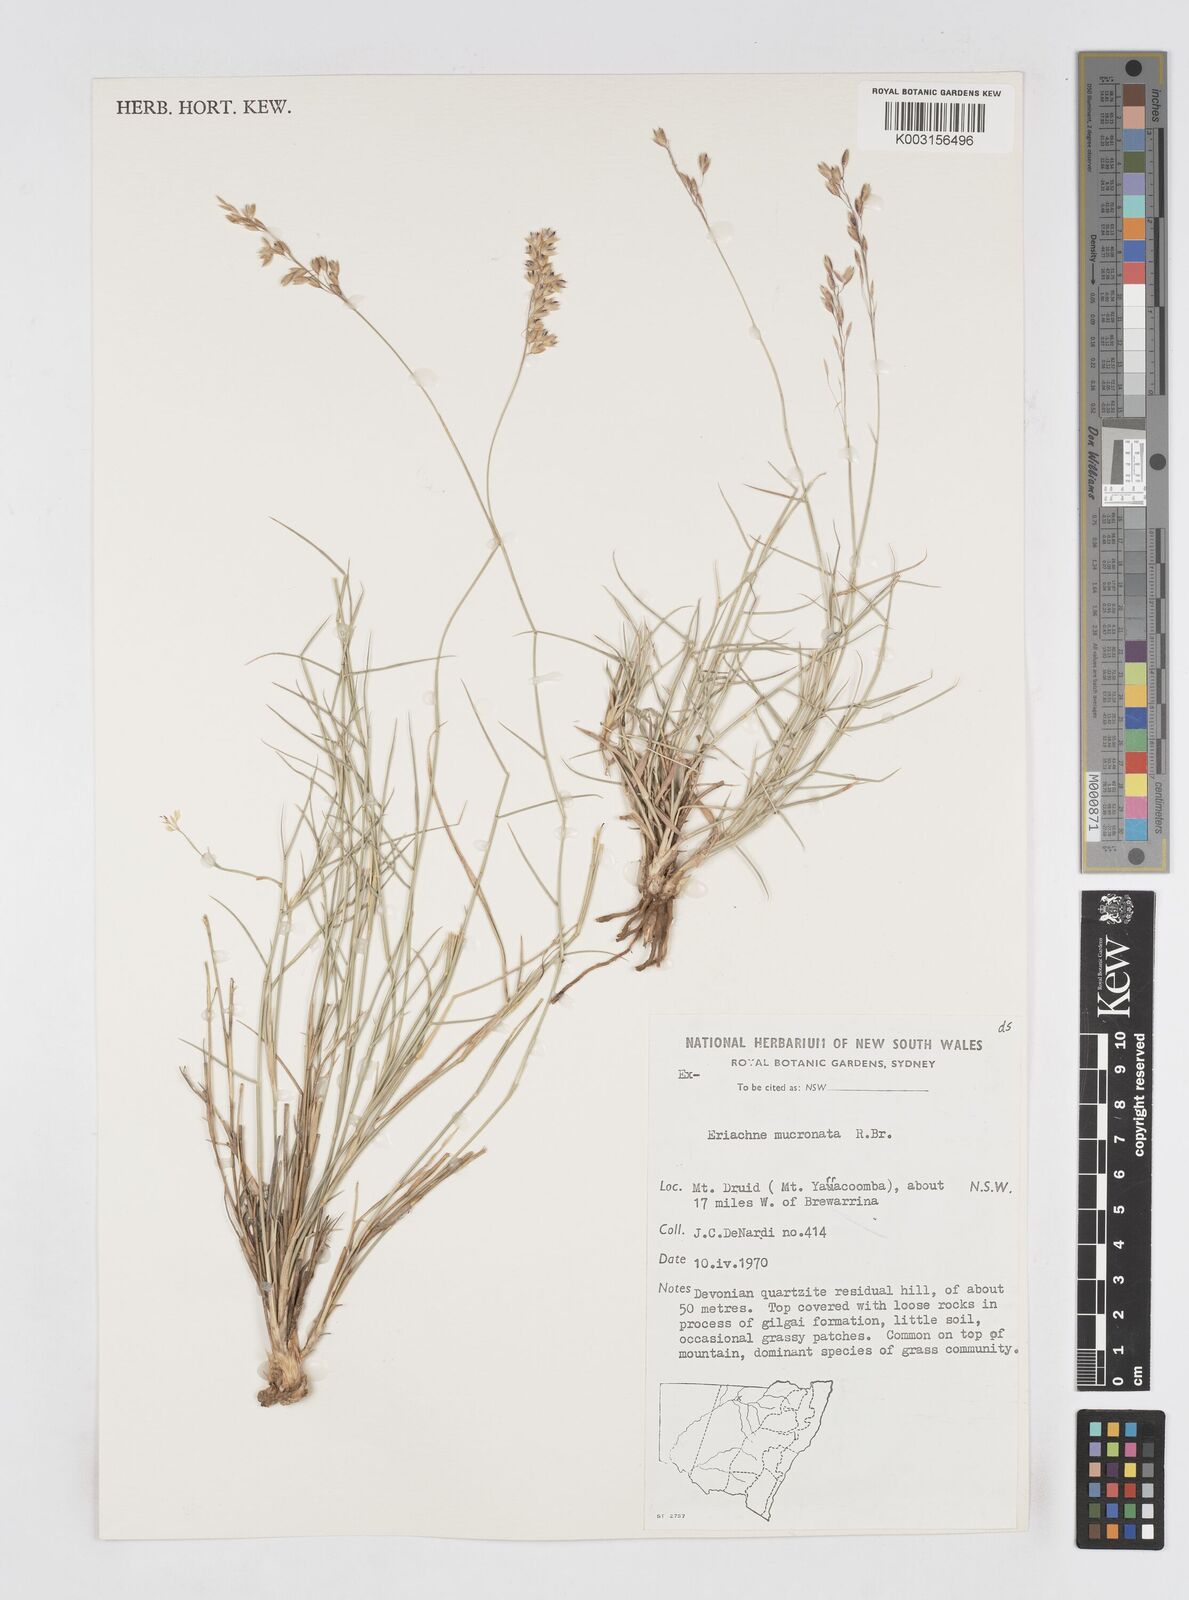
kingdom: Plantae
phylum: Tracheophyta
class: Liliopsida
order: Poales
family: Poaceae
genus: Eriachne
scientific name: Eriachne mucronata
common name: Mountain wanderrie grass
